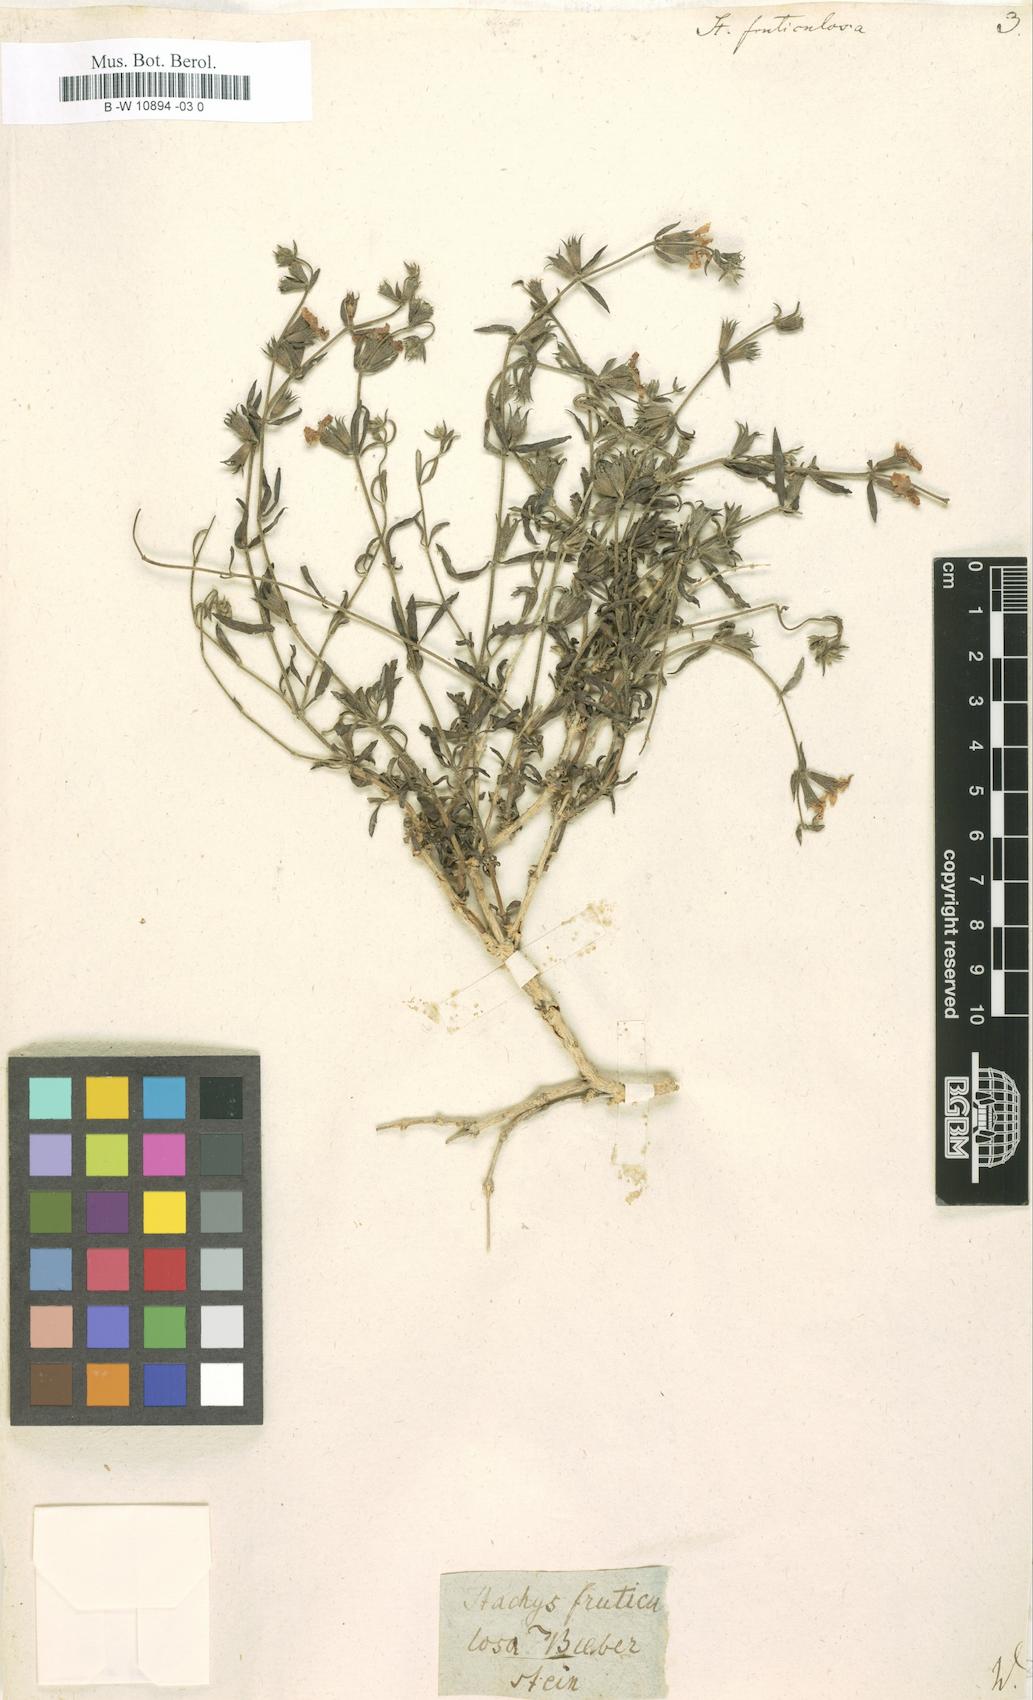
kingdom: Plantae
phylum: Tracheophyta
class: Magnoliopsida
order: Lamiales
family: Lamiaceae
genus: Stachys
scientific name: Stachys fruticulosa
